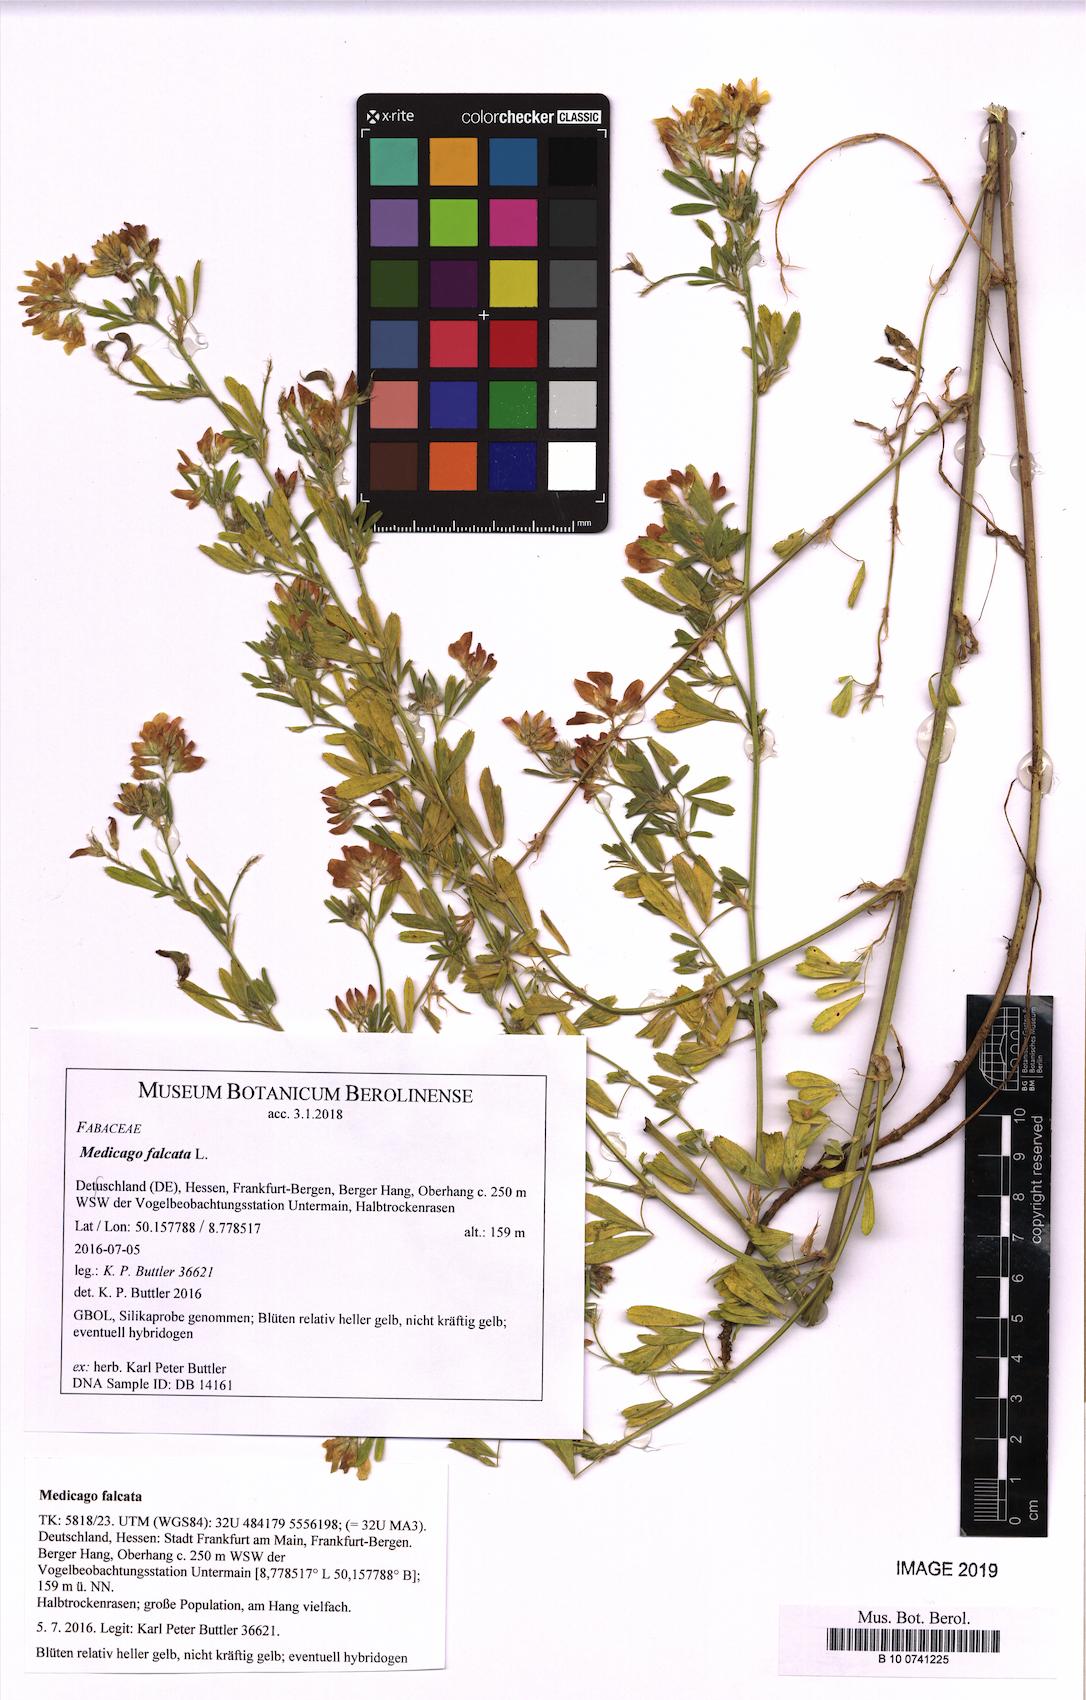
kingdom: Plantae
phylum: Tracheophyta
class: Magnoliopsida
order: Fabales
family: Fabaceae
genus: Medicago
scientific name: Medicago falcata
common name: Sickle medick
